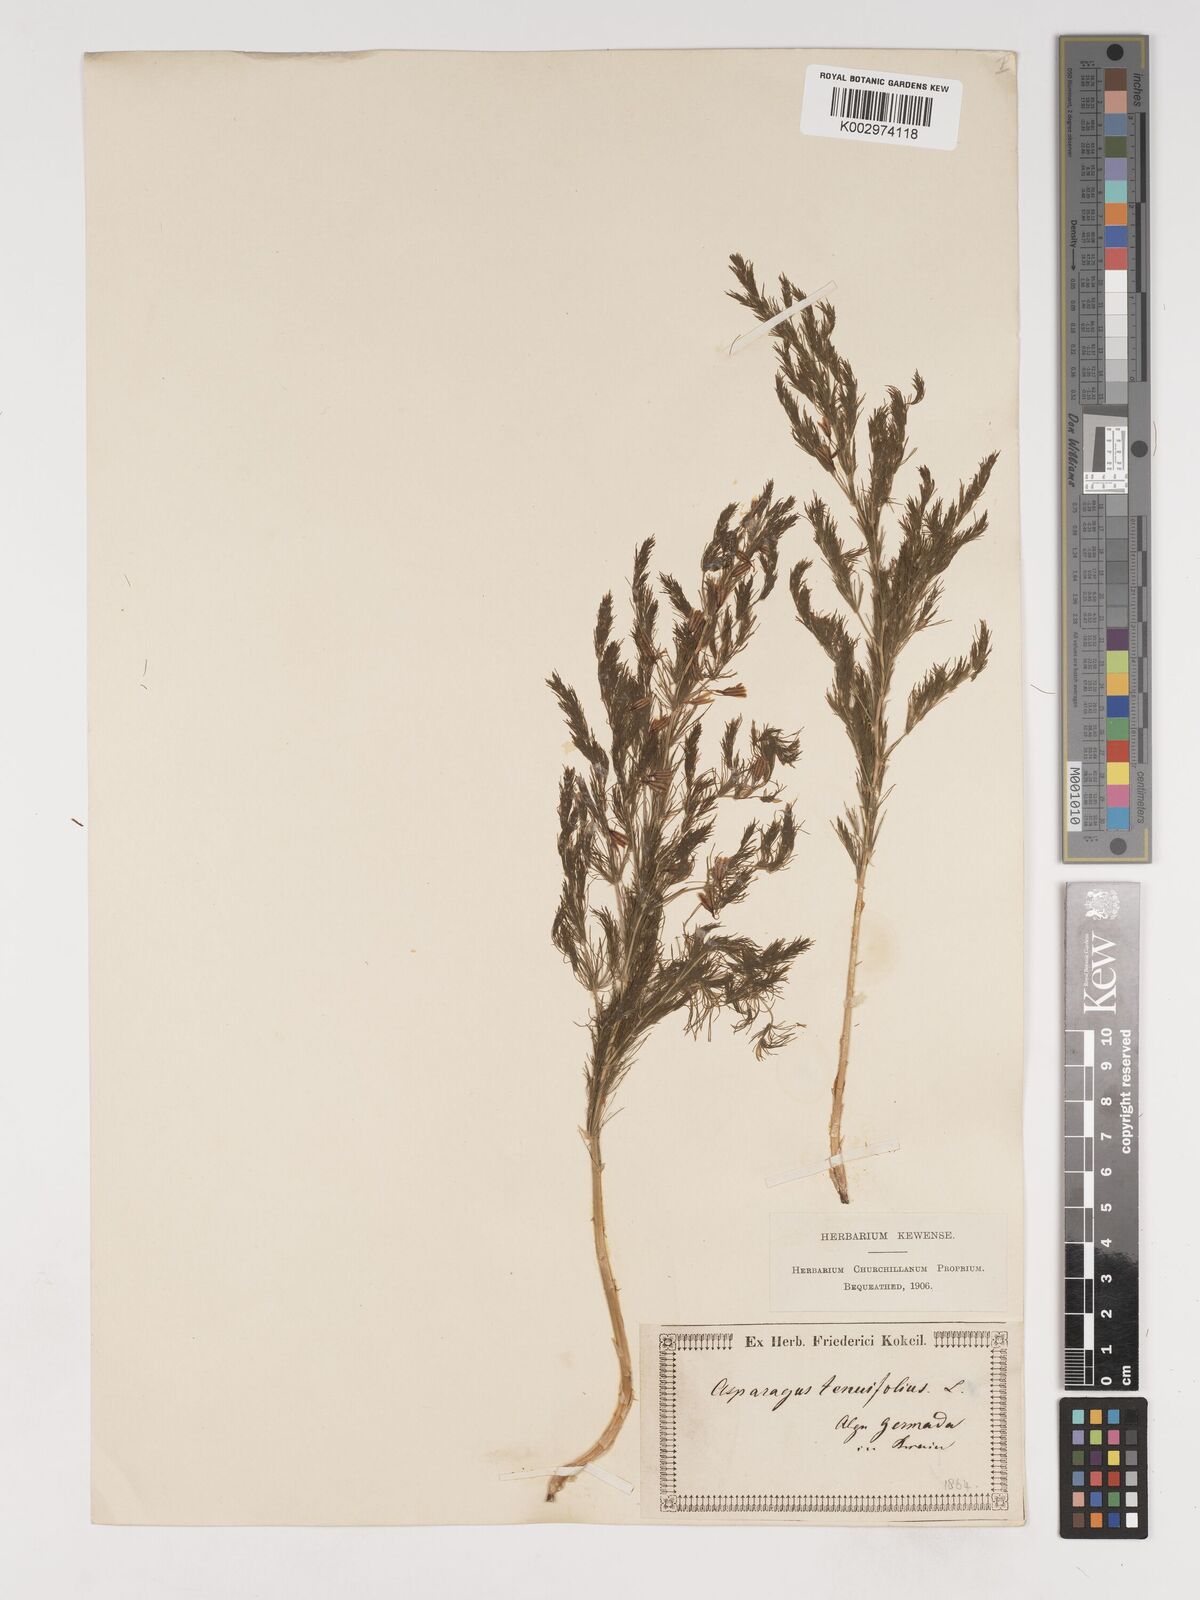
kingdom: Plantae
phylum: Tracheophyta
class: Liliopsida
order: Asparagales
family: Asparagaceae
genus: Asparagus
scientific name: Asparagus tenuifolius
